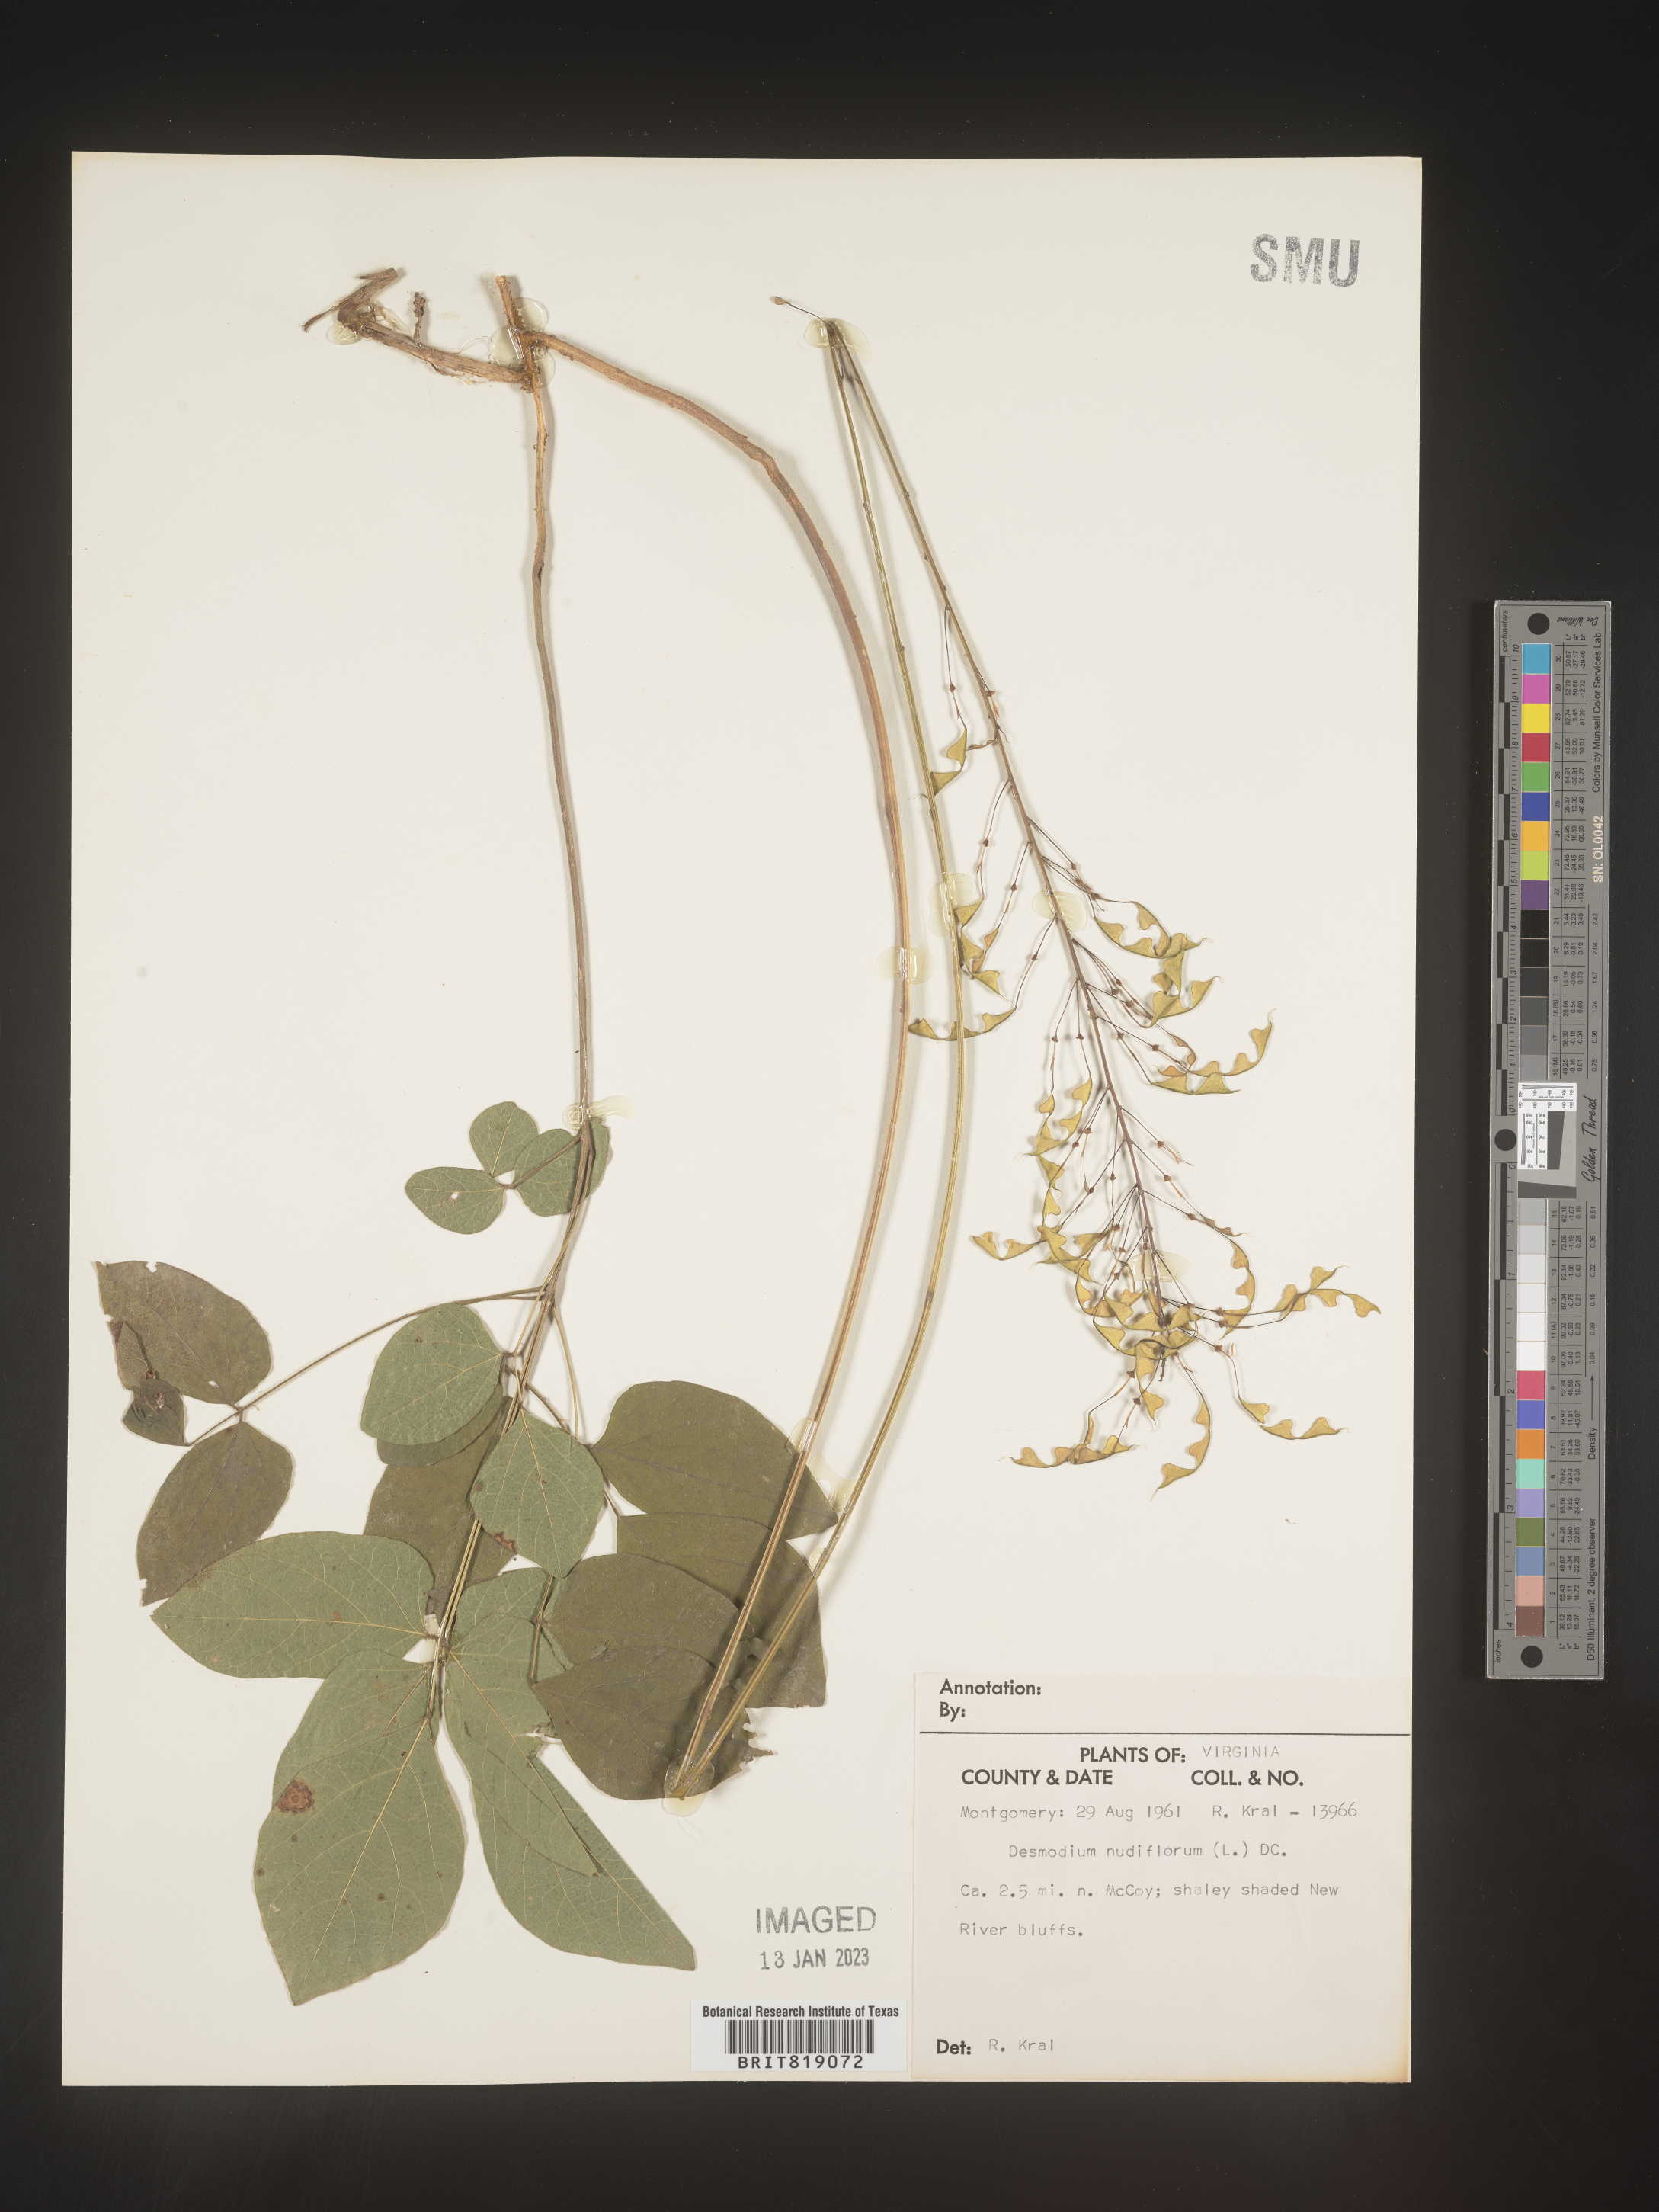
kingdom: Plantae
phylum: Tracheophyta
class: Magnoliopsida
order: Fabales
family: Fabaceae
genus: Hylodesmum
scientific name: Hylodesmum nudiflorum
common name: Bare-stemmed tick-trefoil
